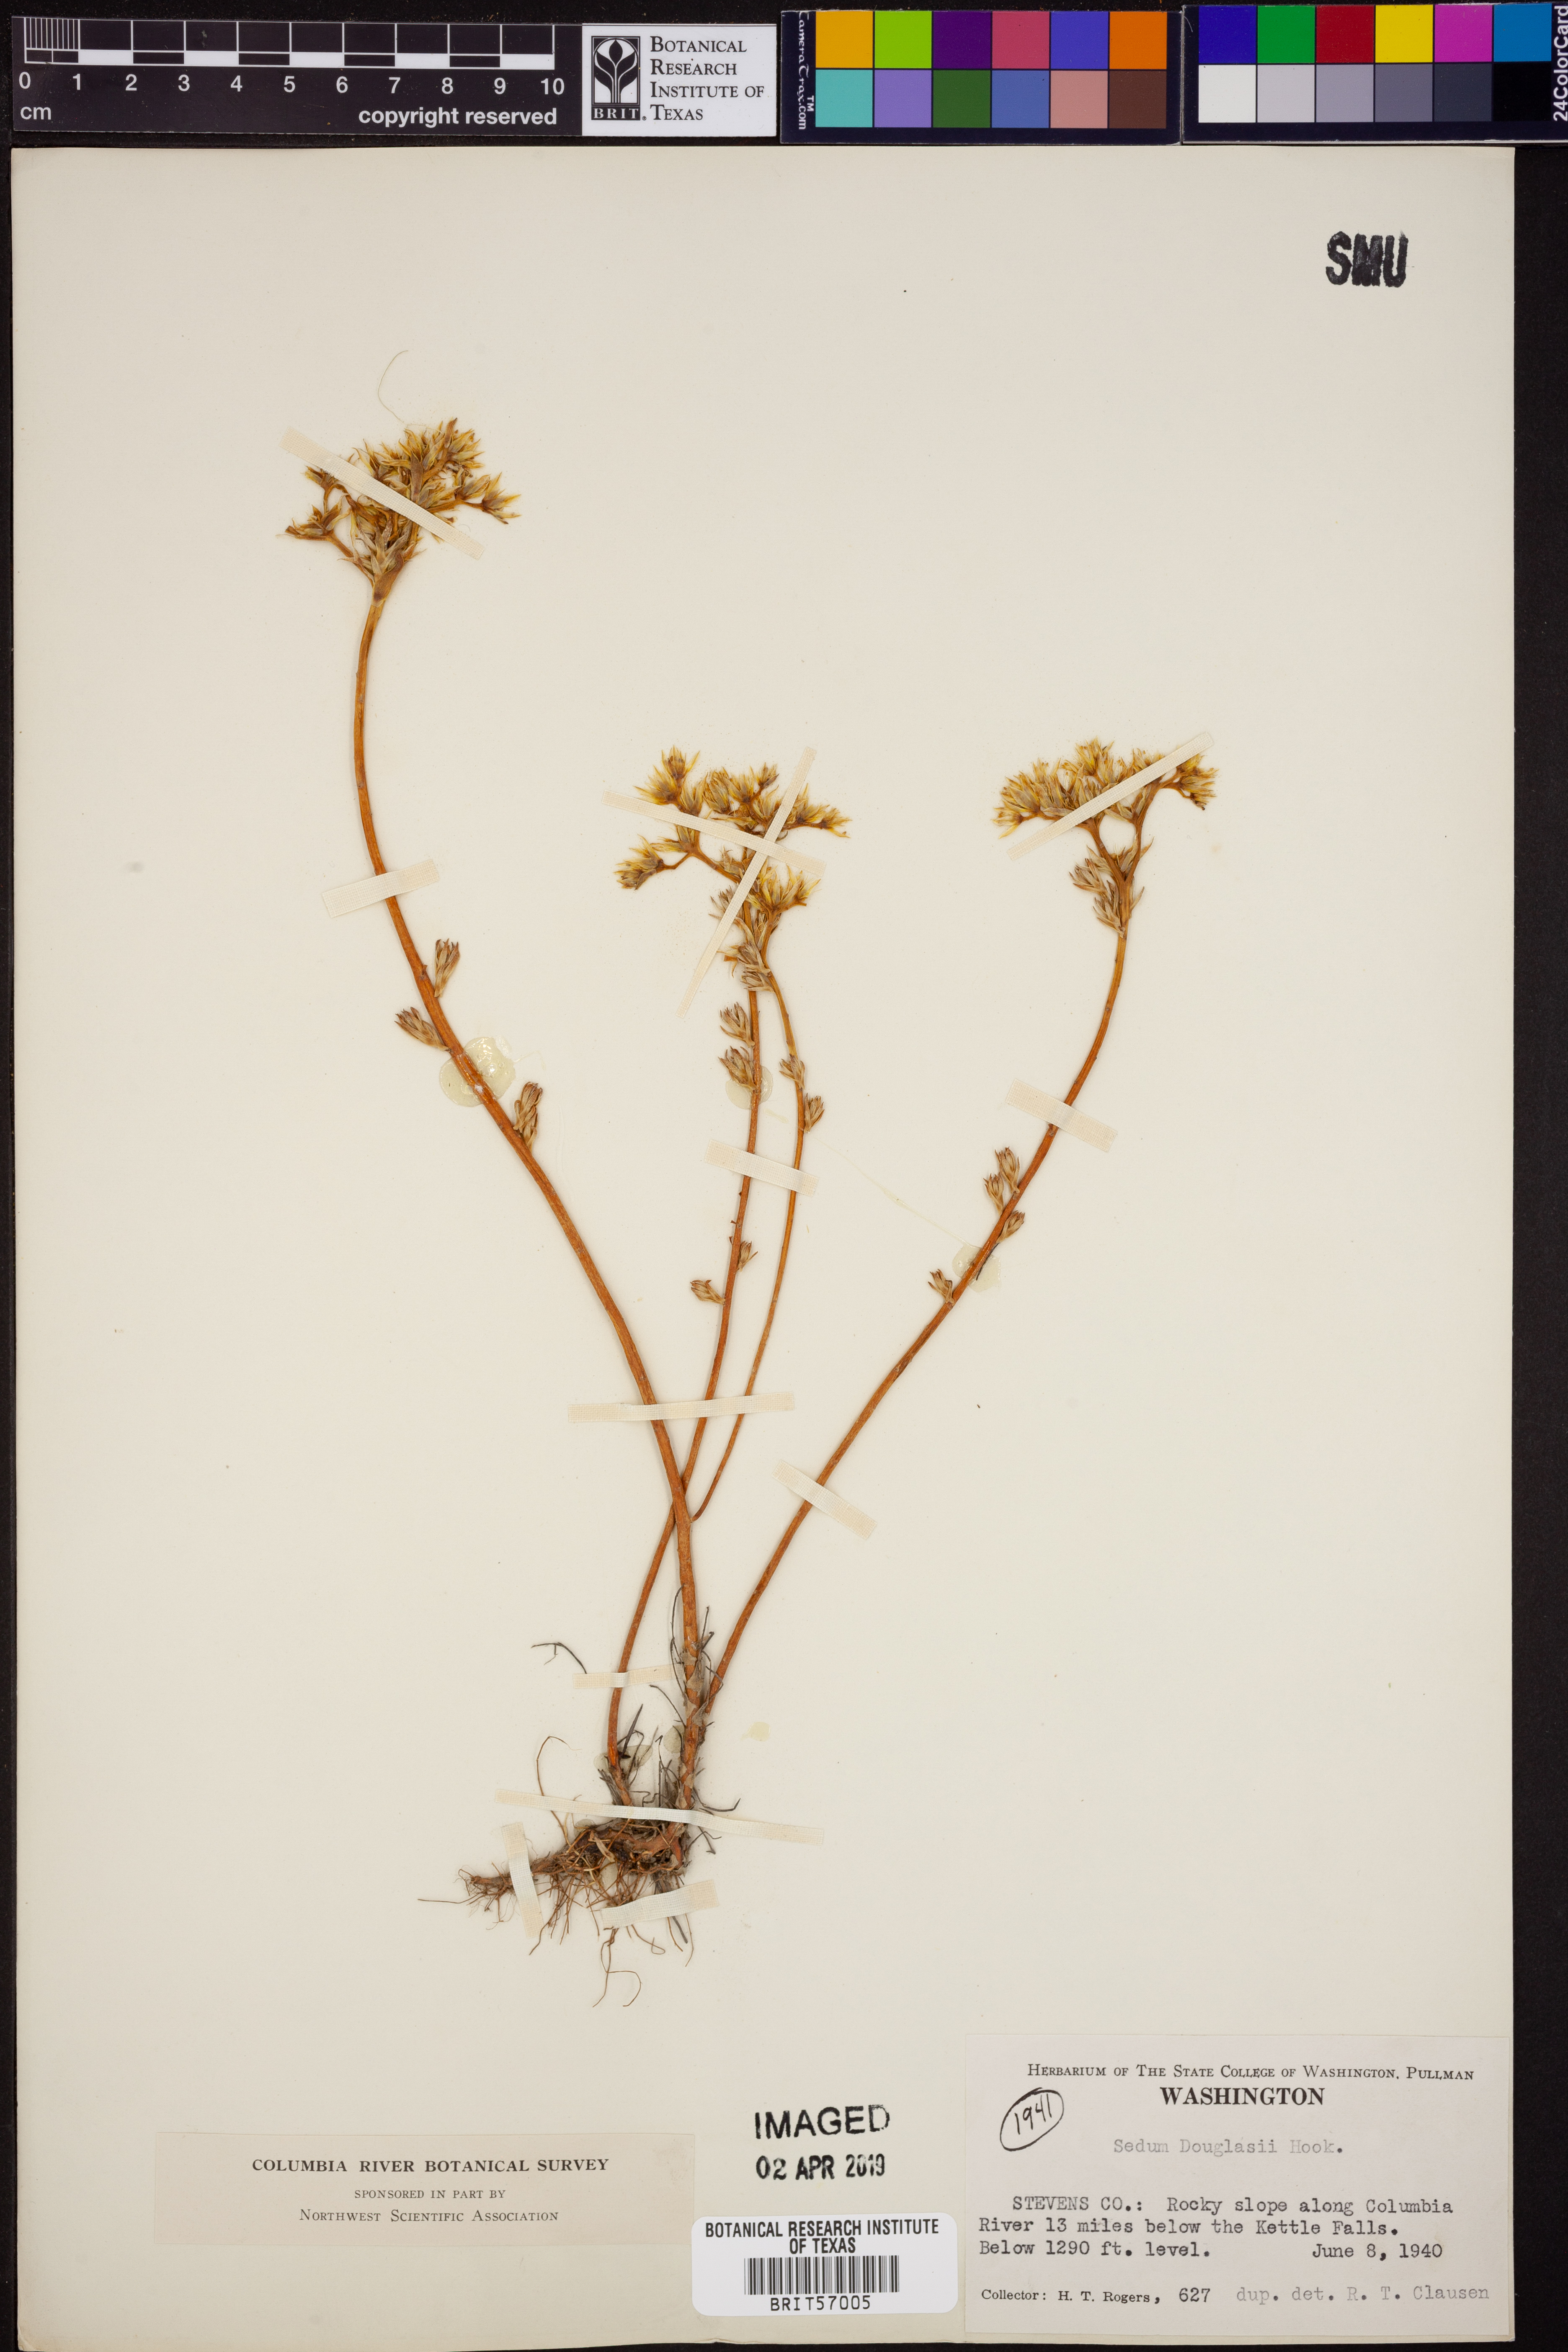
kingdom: Plantae
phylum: Tracheophyta
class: Magnoliopsida
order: Saxifragales
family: Crassulaceae
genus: Sedum
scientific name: Sedum stenopetalum
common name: Narrow-petaled stonecrop
